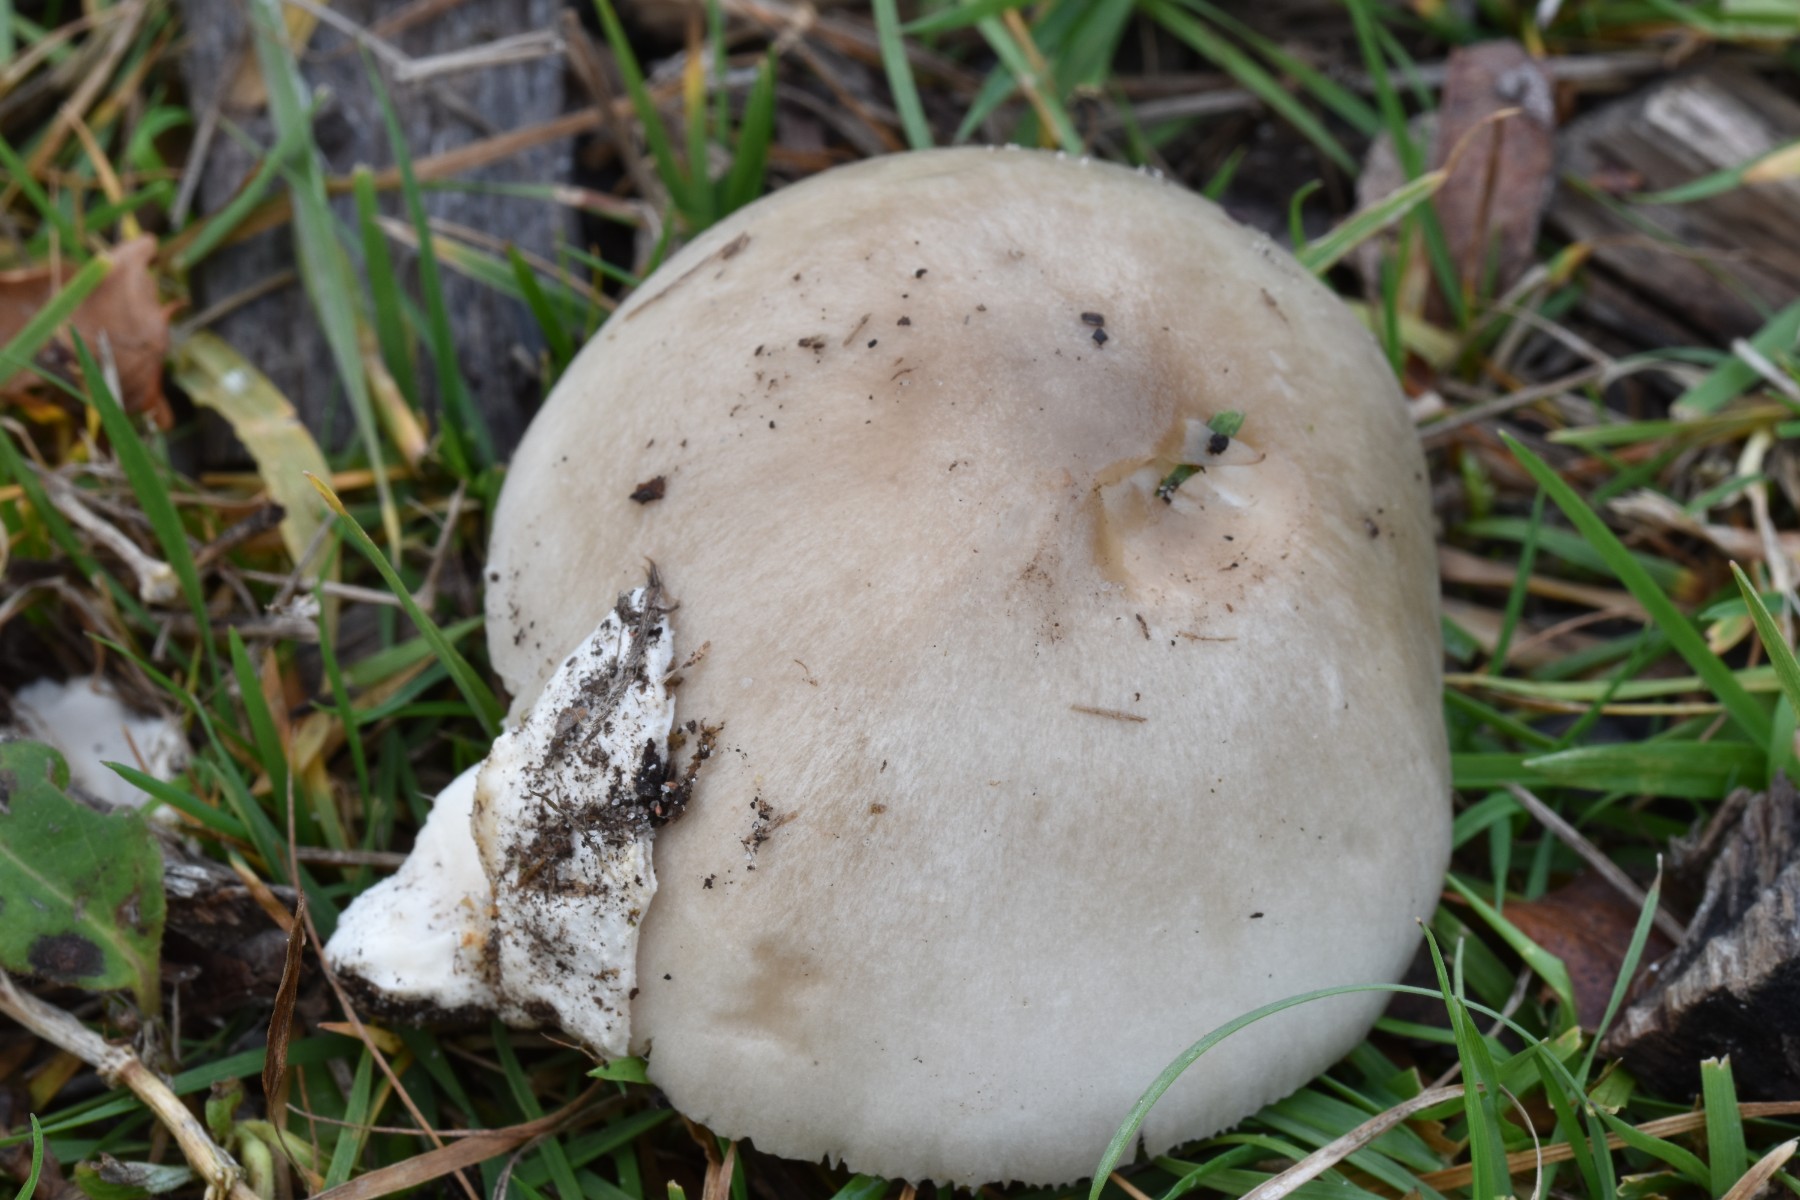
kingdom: Fungi
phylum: Basidiomycota
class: Agaricomycetes
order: Agaricales
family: Pluteaceae
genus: Volvopluteus
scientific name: Volvopluteus gloiocephalus
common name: høj posesvamp
